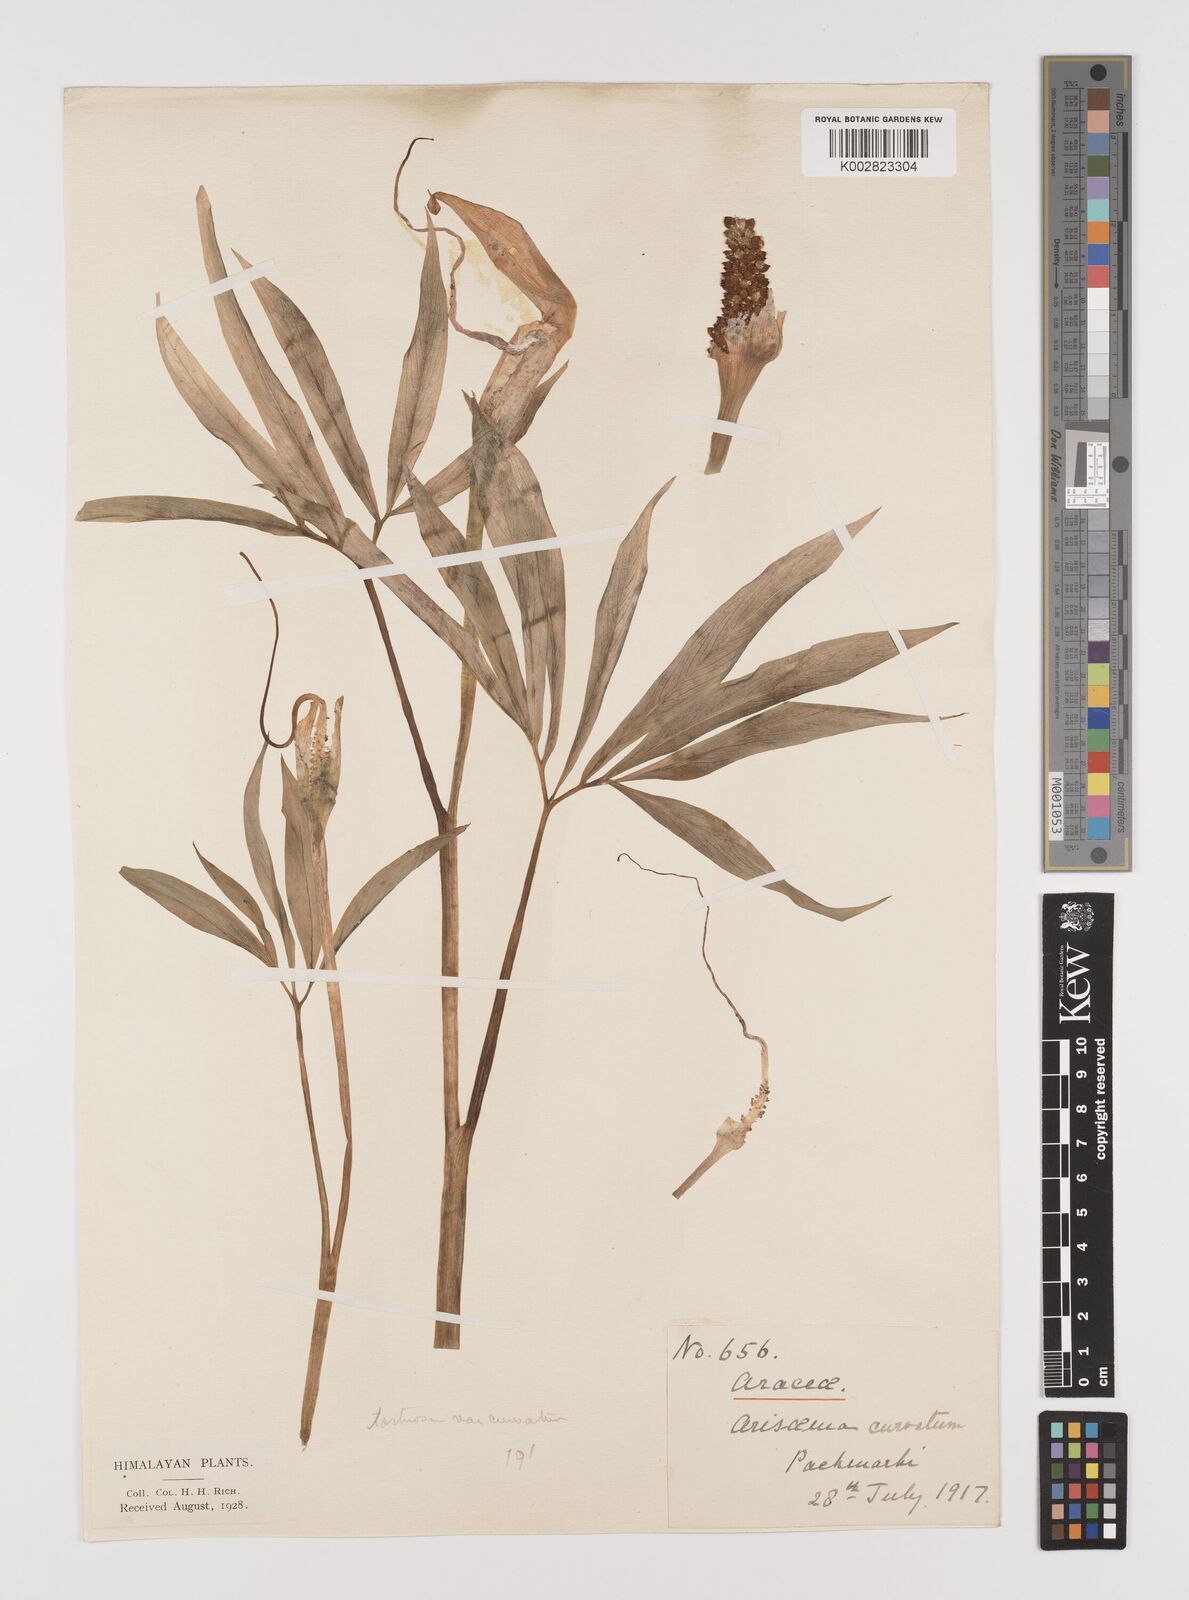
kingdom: Plantae
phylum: Tracheophyta
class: Liliopsida
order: Alismatales
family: Araceae
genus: Arisaema
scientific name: Arisaema tortuosum
